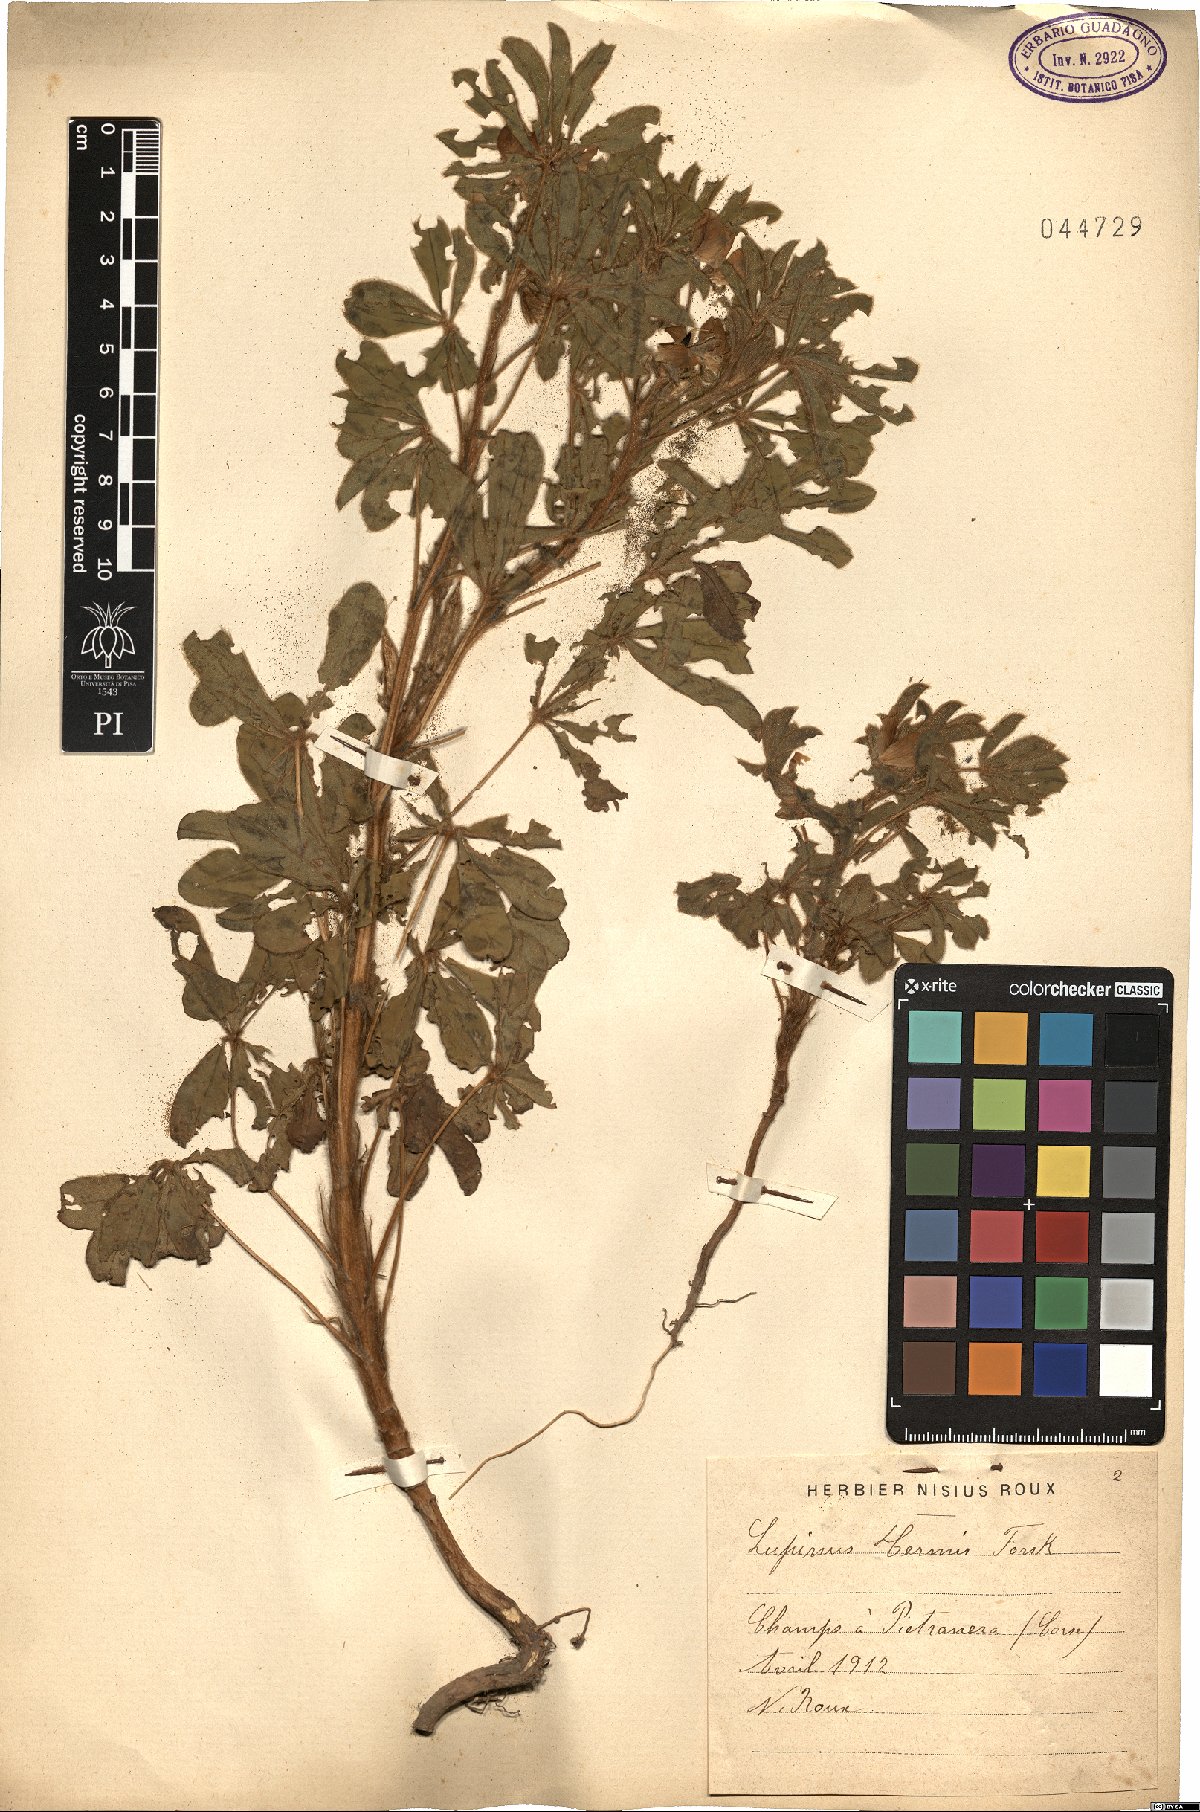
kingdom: Plantae
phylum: Tracheophyta
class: Magnoliopsida
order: Fabales
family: Fabaceae
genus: Lupinus
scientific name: Lupinus albus
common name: White lupin
